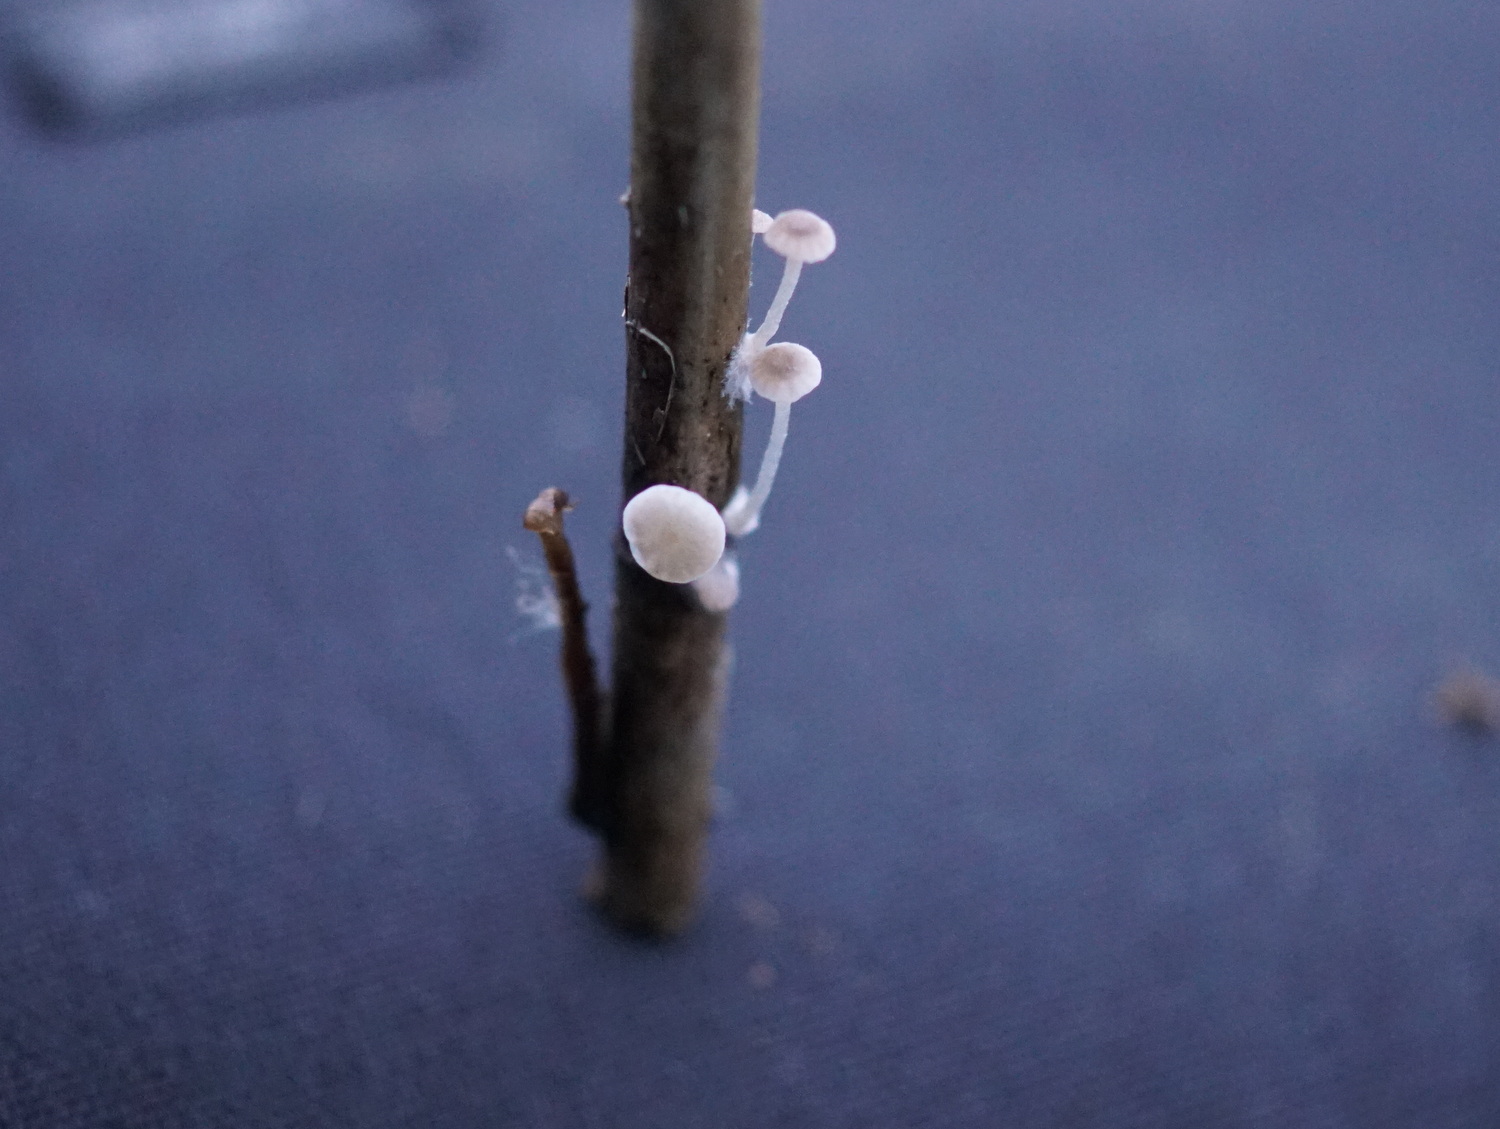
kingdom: Fungi
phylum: Basidiomycota
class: Agaricomycetes
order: Agaricales
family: Mycenaceae
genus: Mycena
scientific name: Mycena belliae
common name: tagrørs-huesvamp
